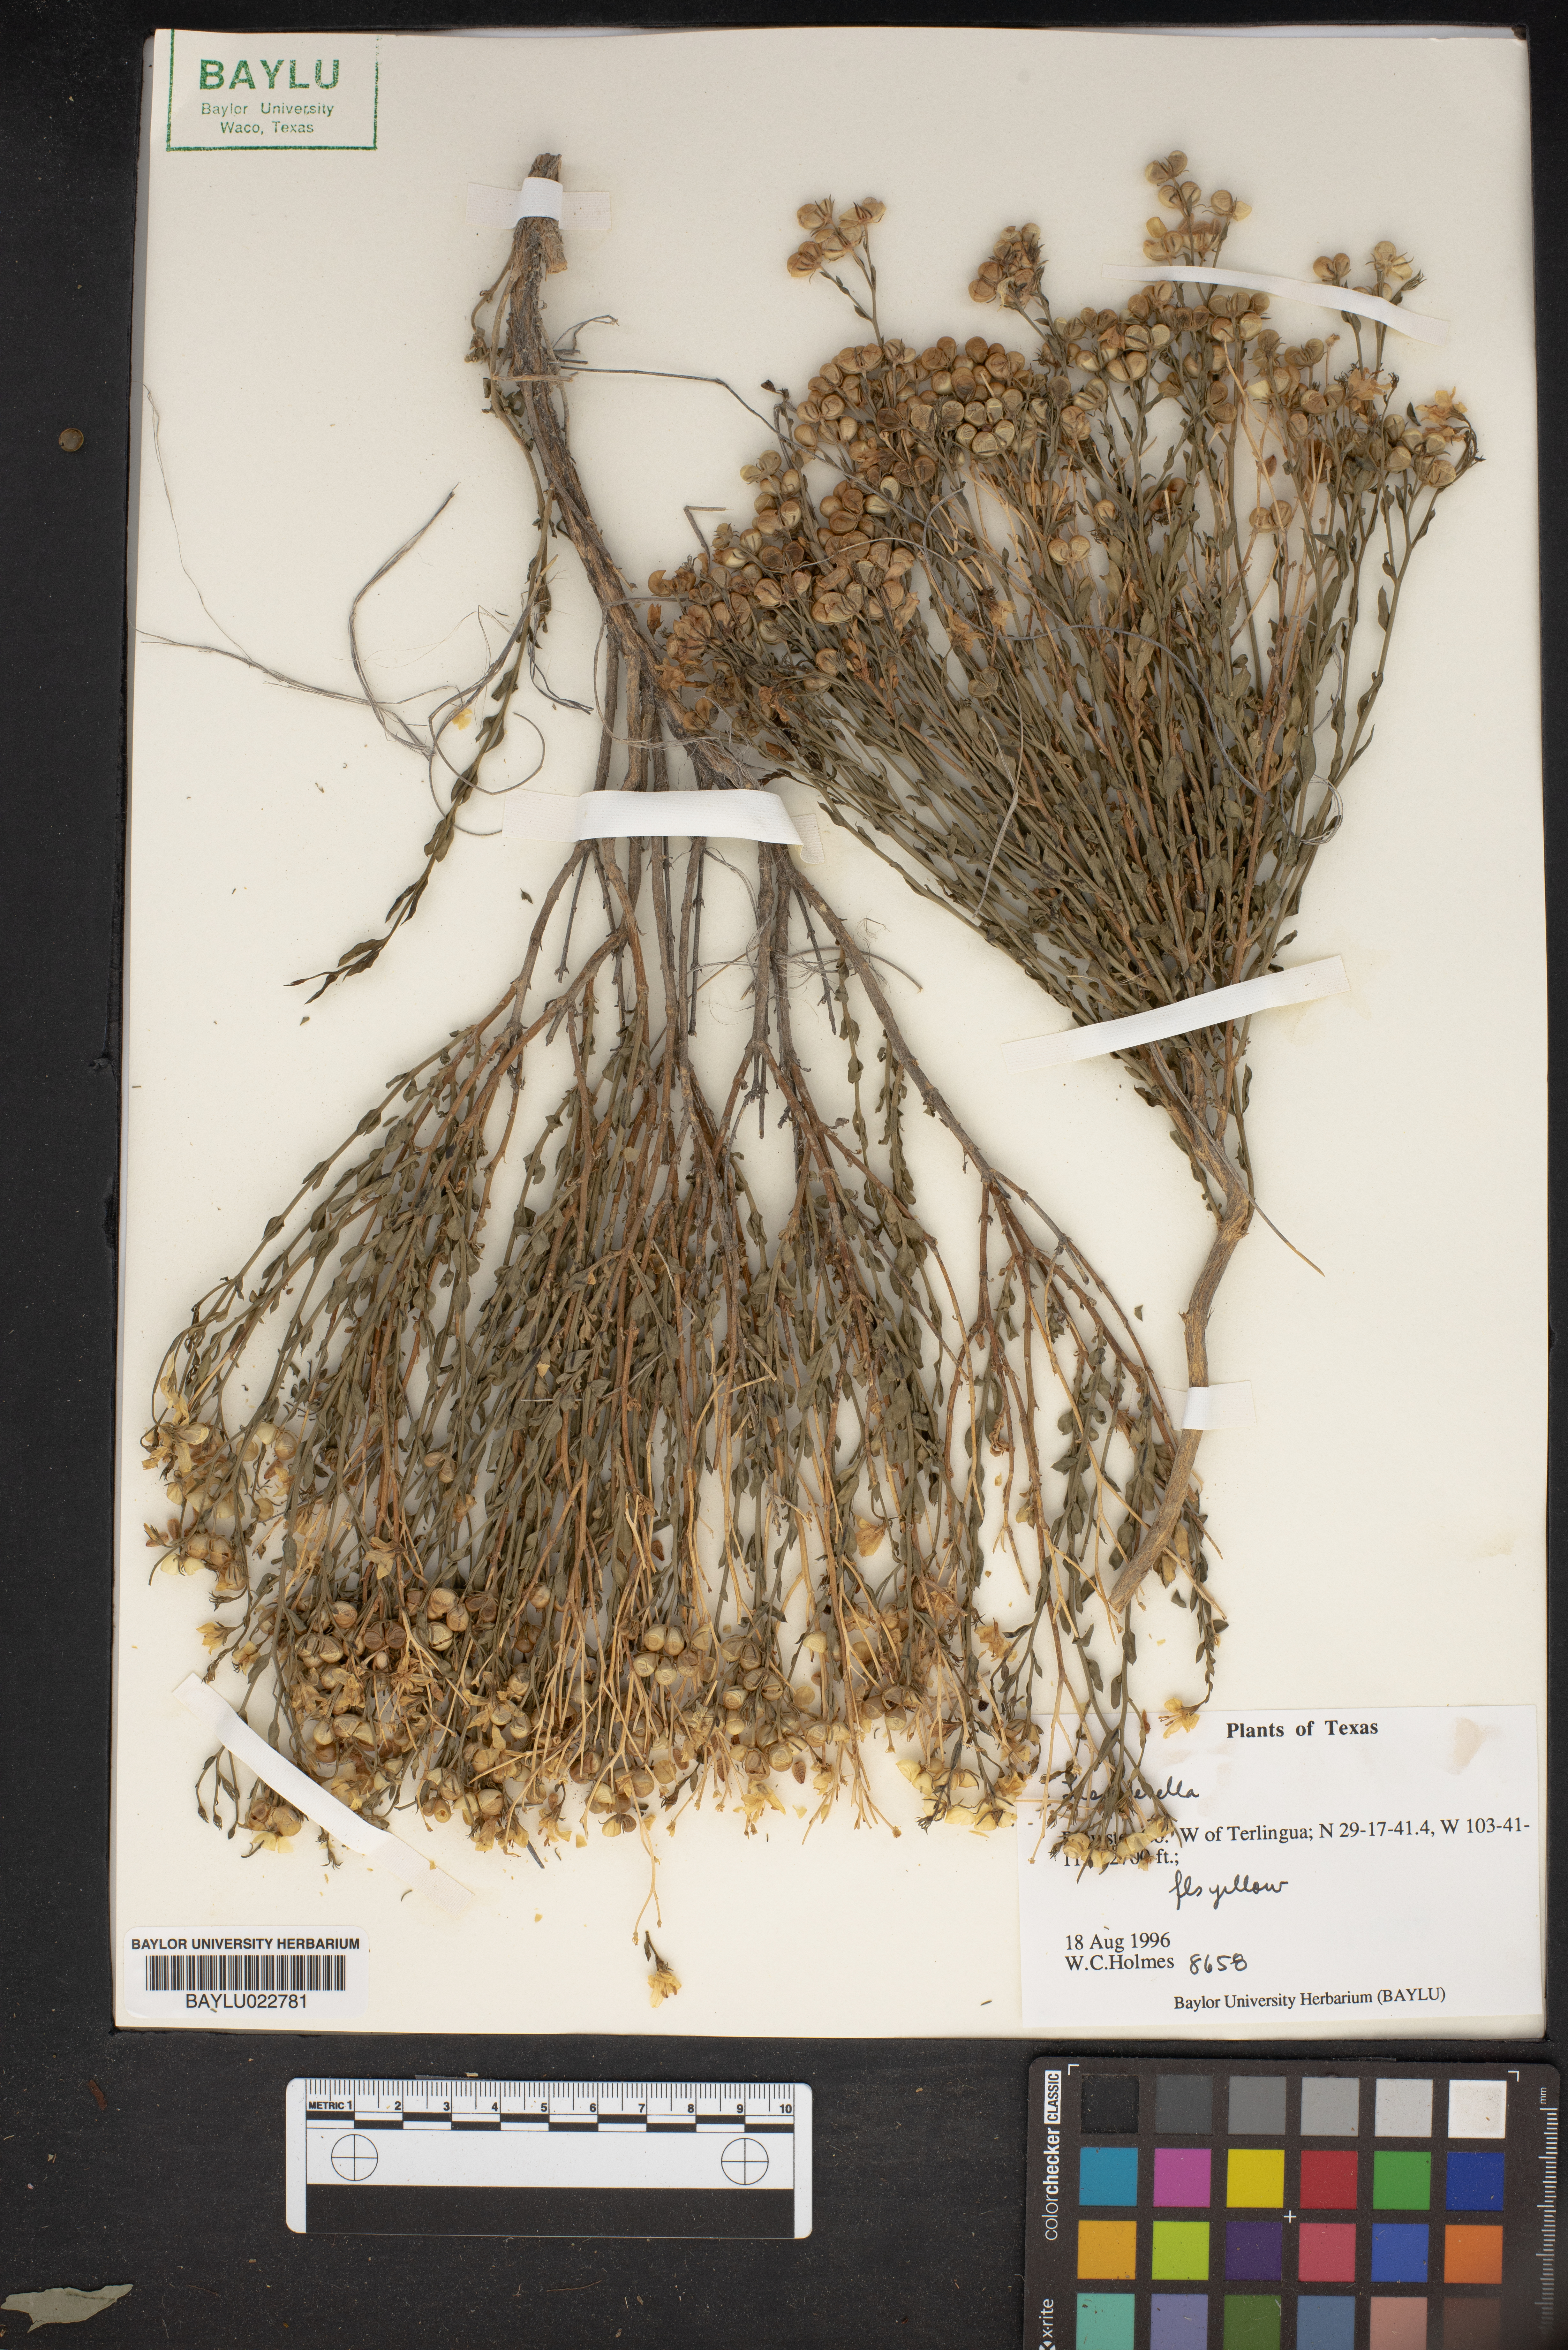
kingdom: Chromista
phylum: Cercozoa
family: Psammonobiotidae
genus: Lesquerella
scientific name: Lesquerella
